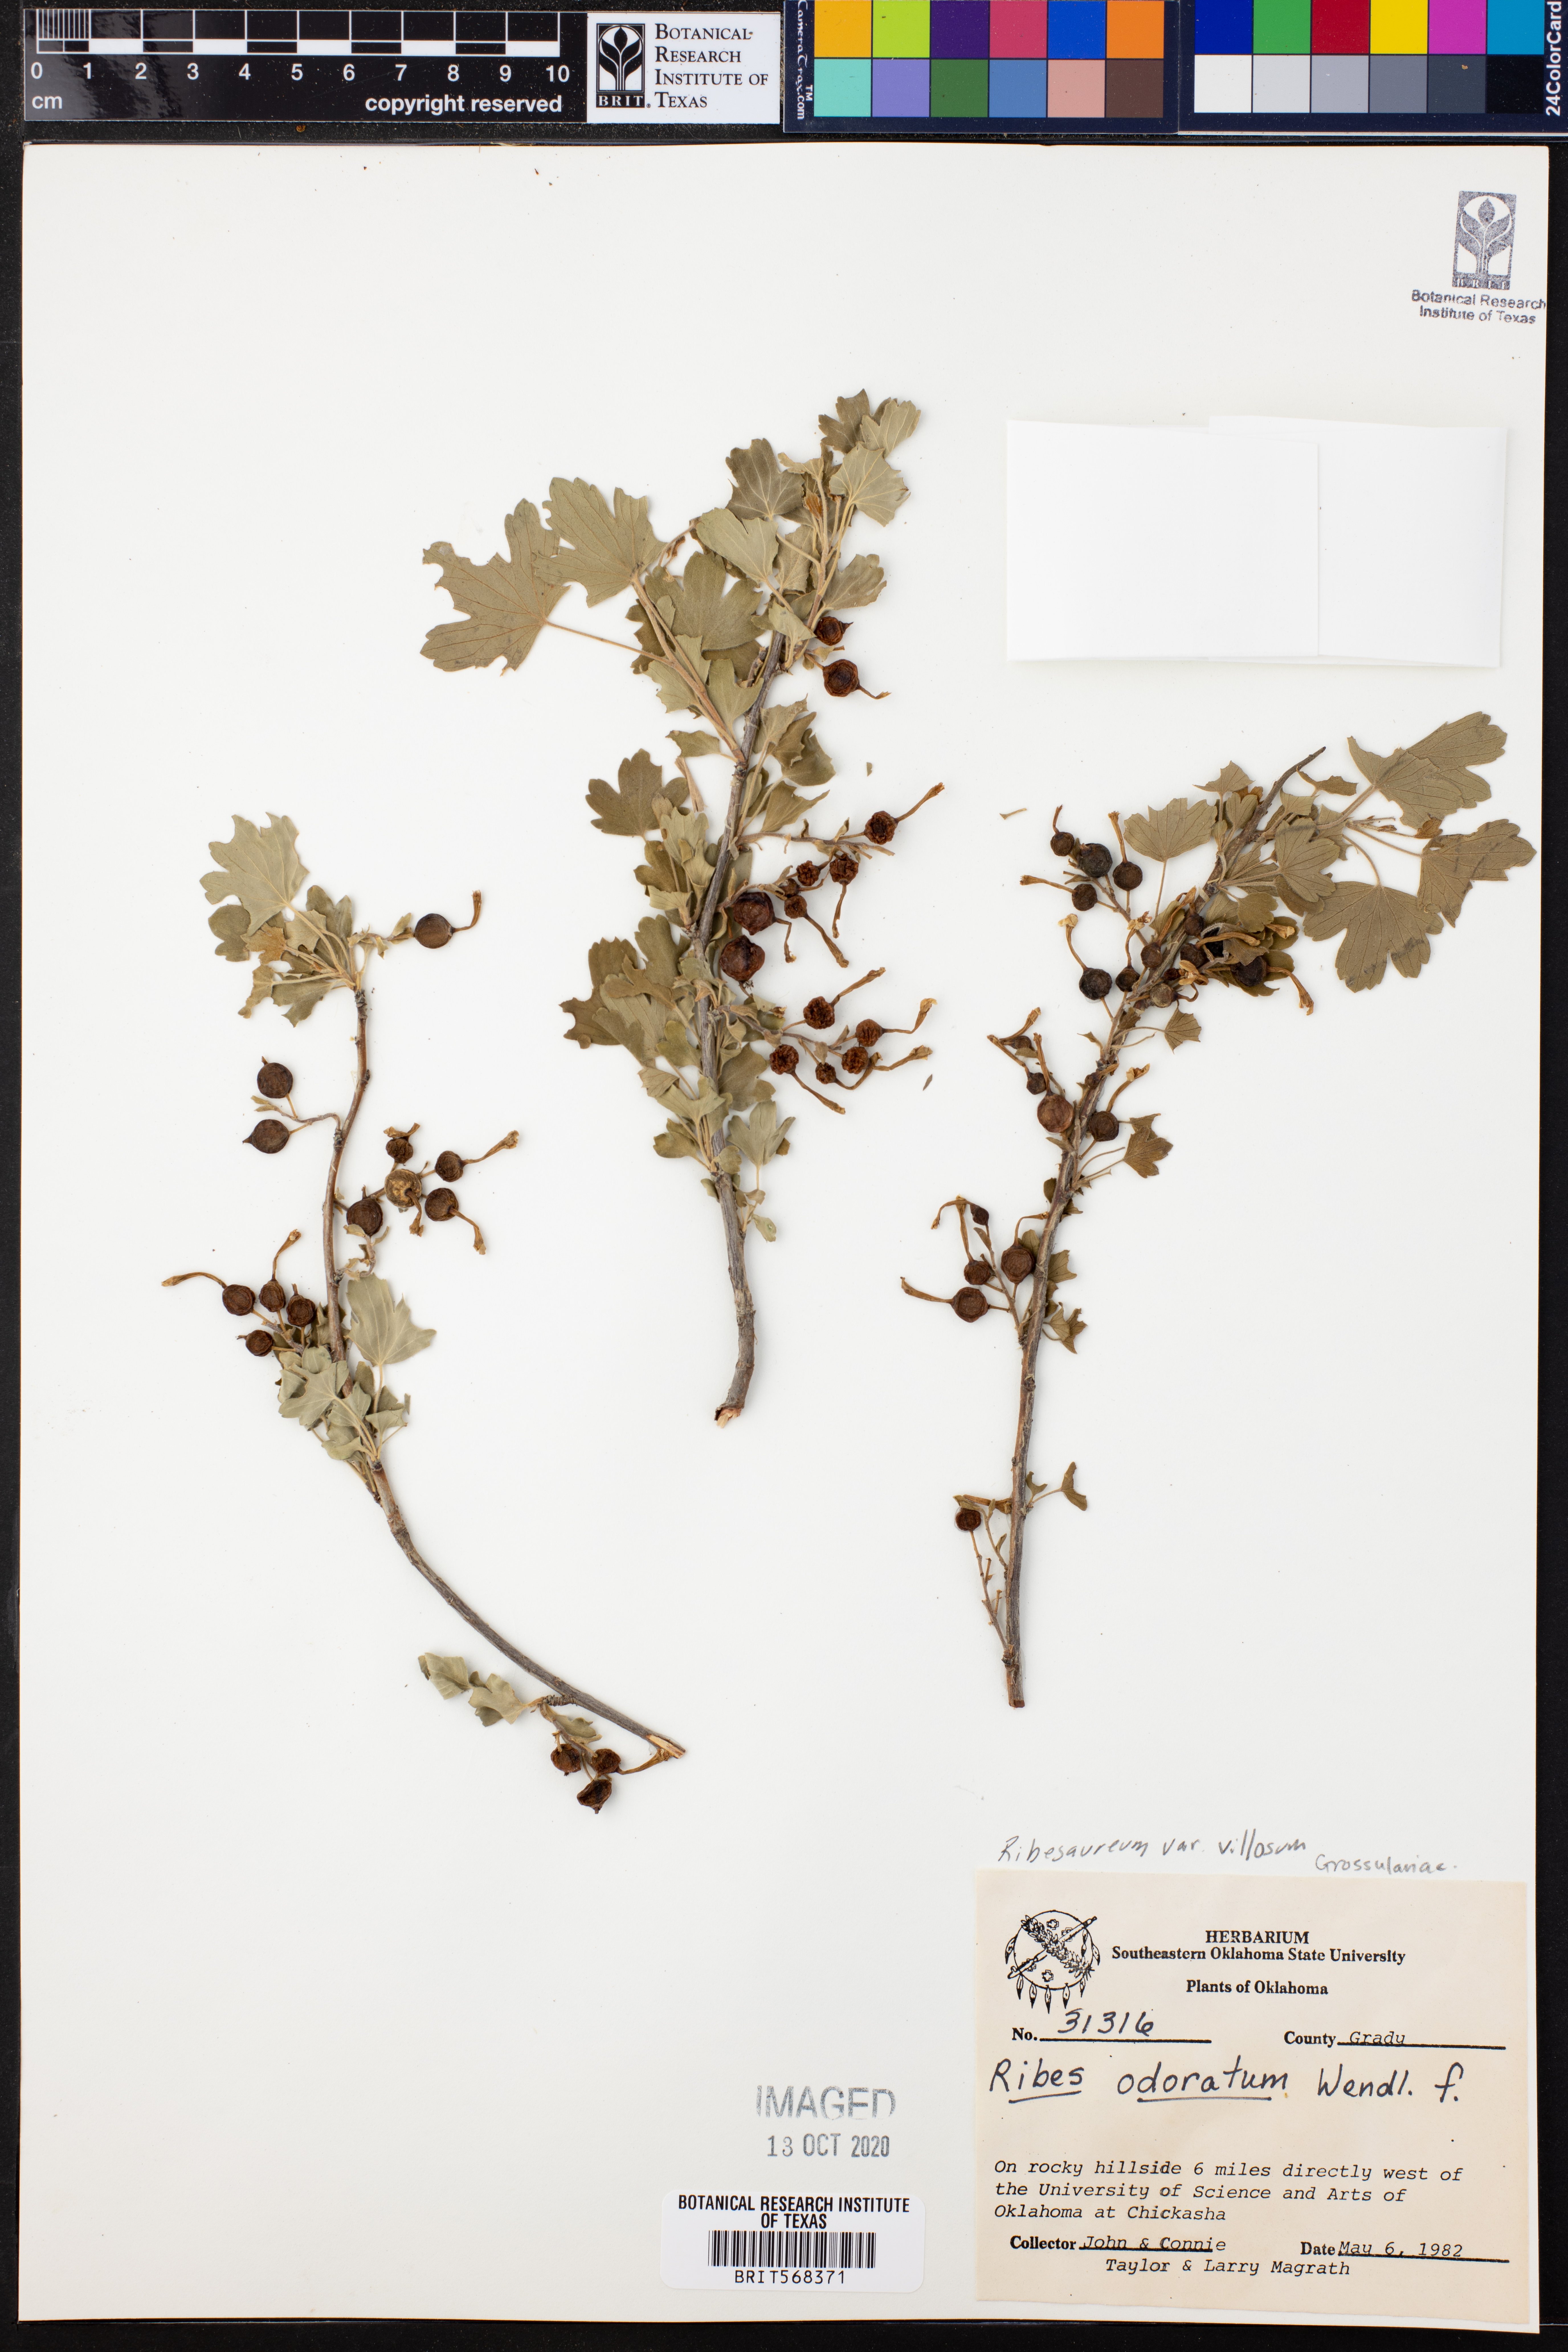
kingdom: Plantae
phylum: Tracheophyta
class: Magnoliopsida
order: Saxifragales
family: Grossulariaceae
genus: Ribes
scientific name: Ribes aureum
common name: Golden currant
